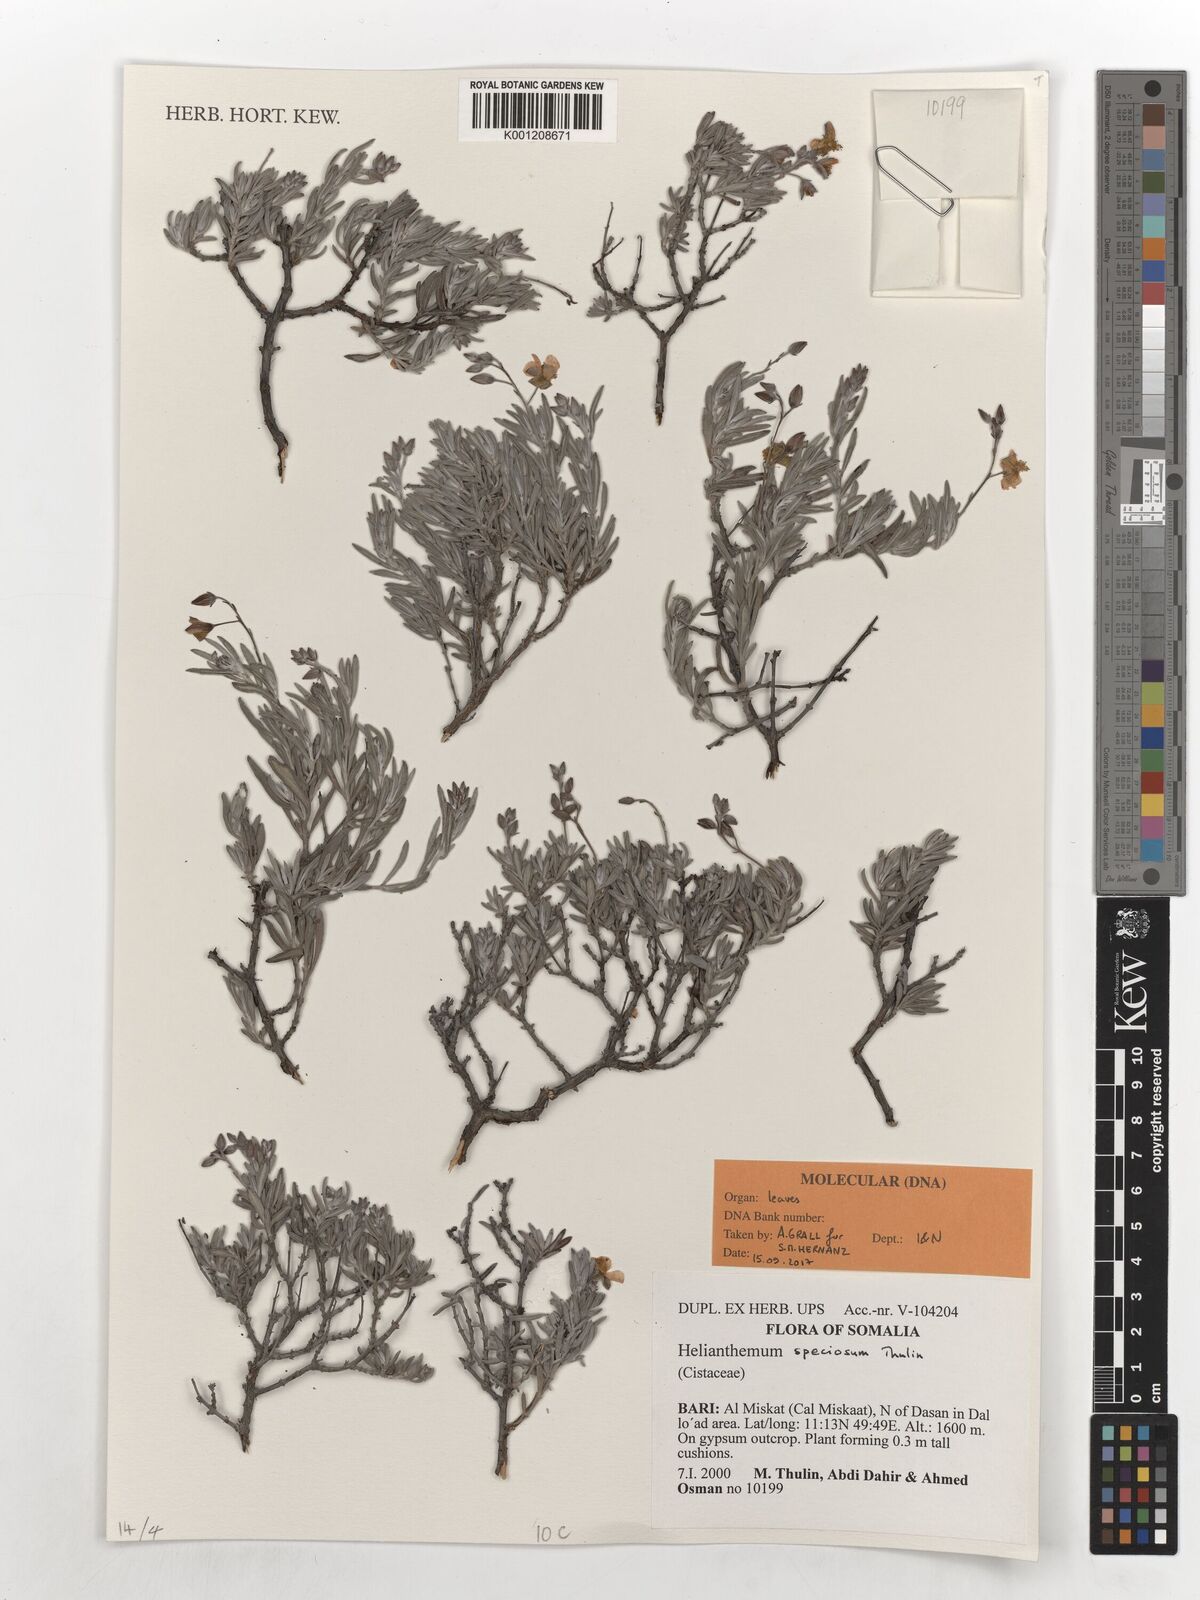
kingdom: Plantae
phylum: Tracheophyta
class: Magnoliopsida
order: Malvales
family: Cistaceae
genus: Helianthemum
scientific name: Helianthemum speciosum
